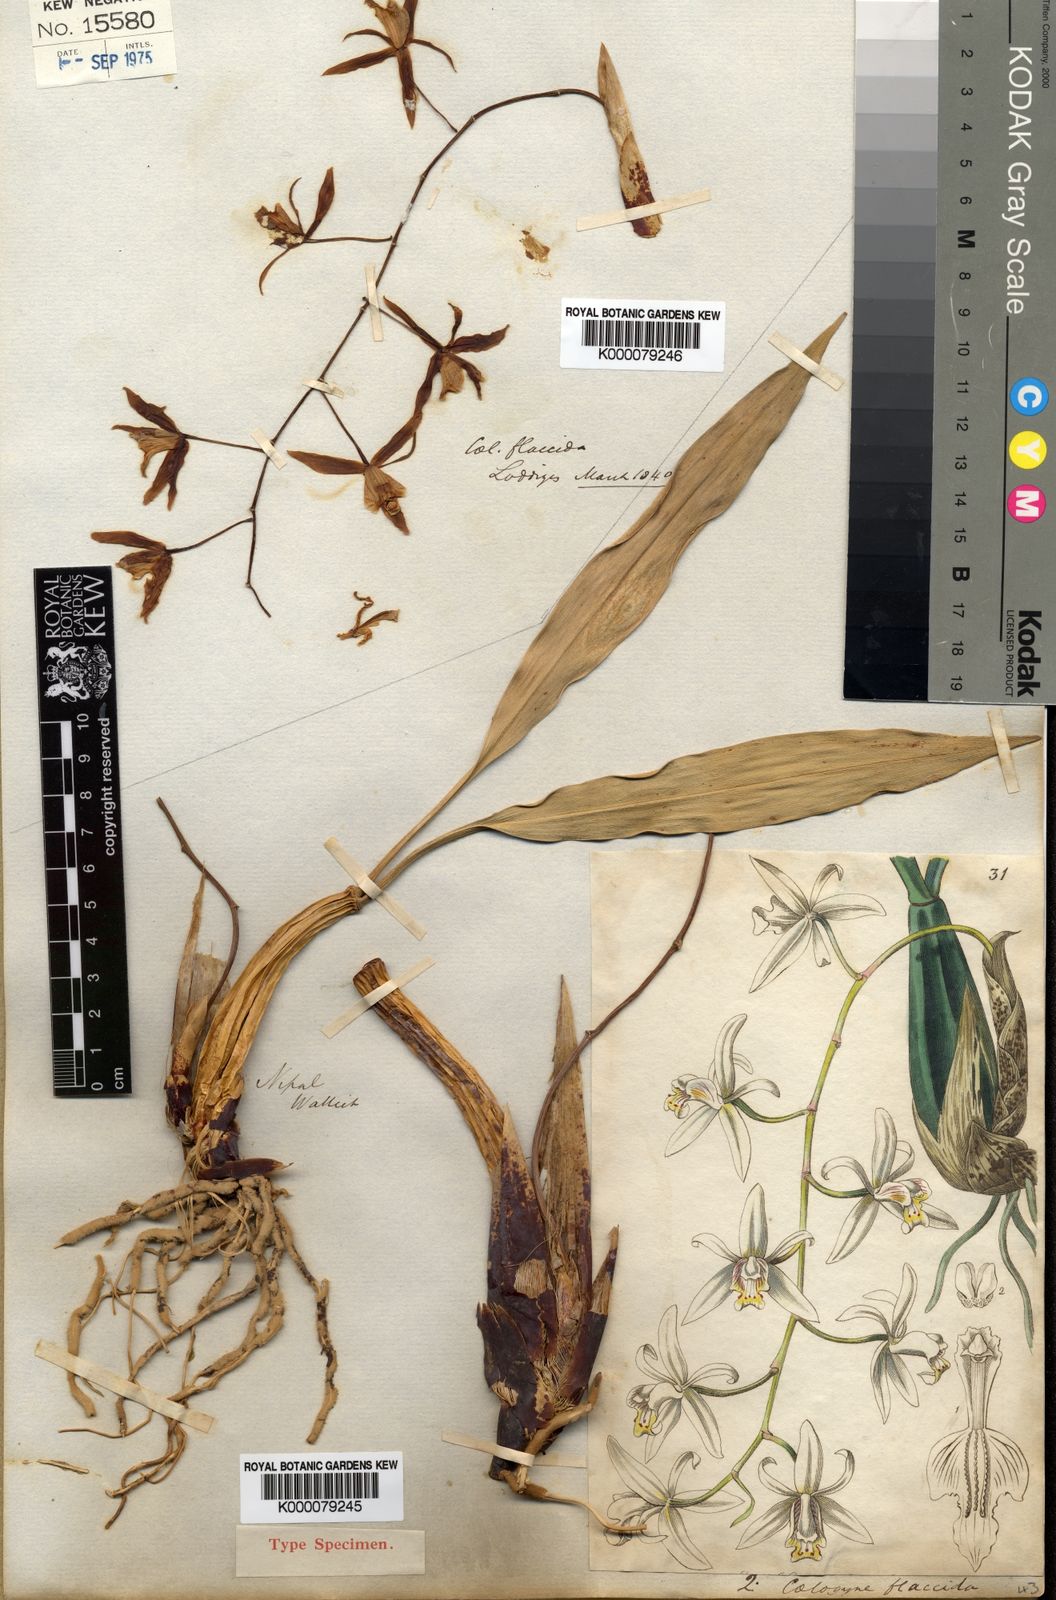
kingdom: Plantae
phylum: Tracheophyta
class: Liliopsida
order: Asparagales
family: Orchidaceae
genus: Coelogyne
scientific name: Coelogyne flaccida
